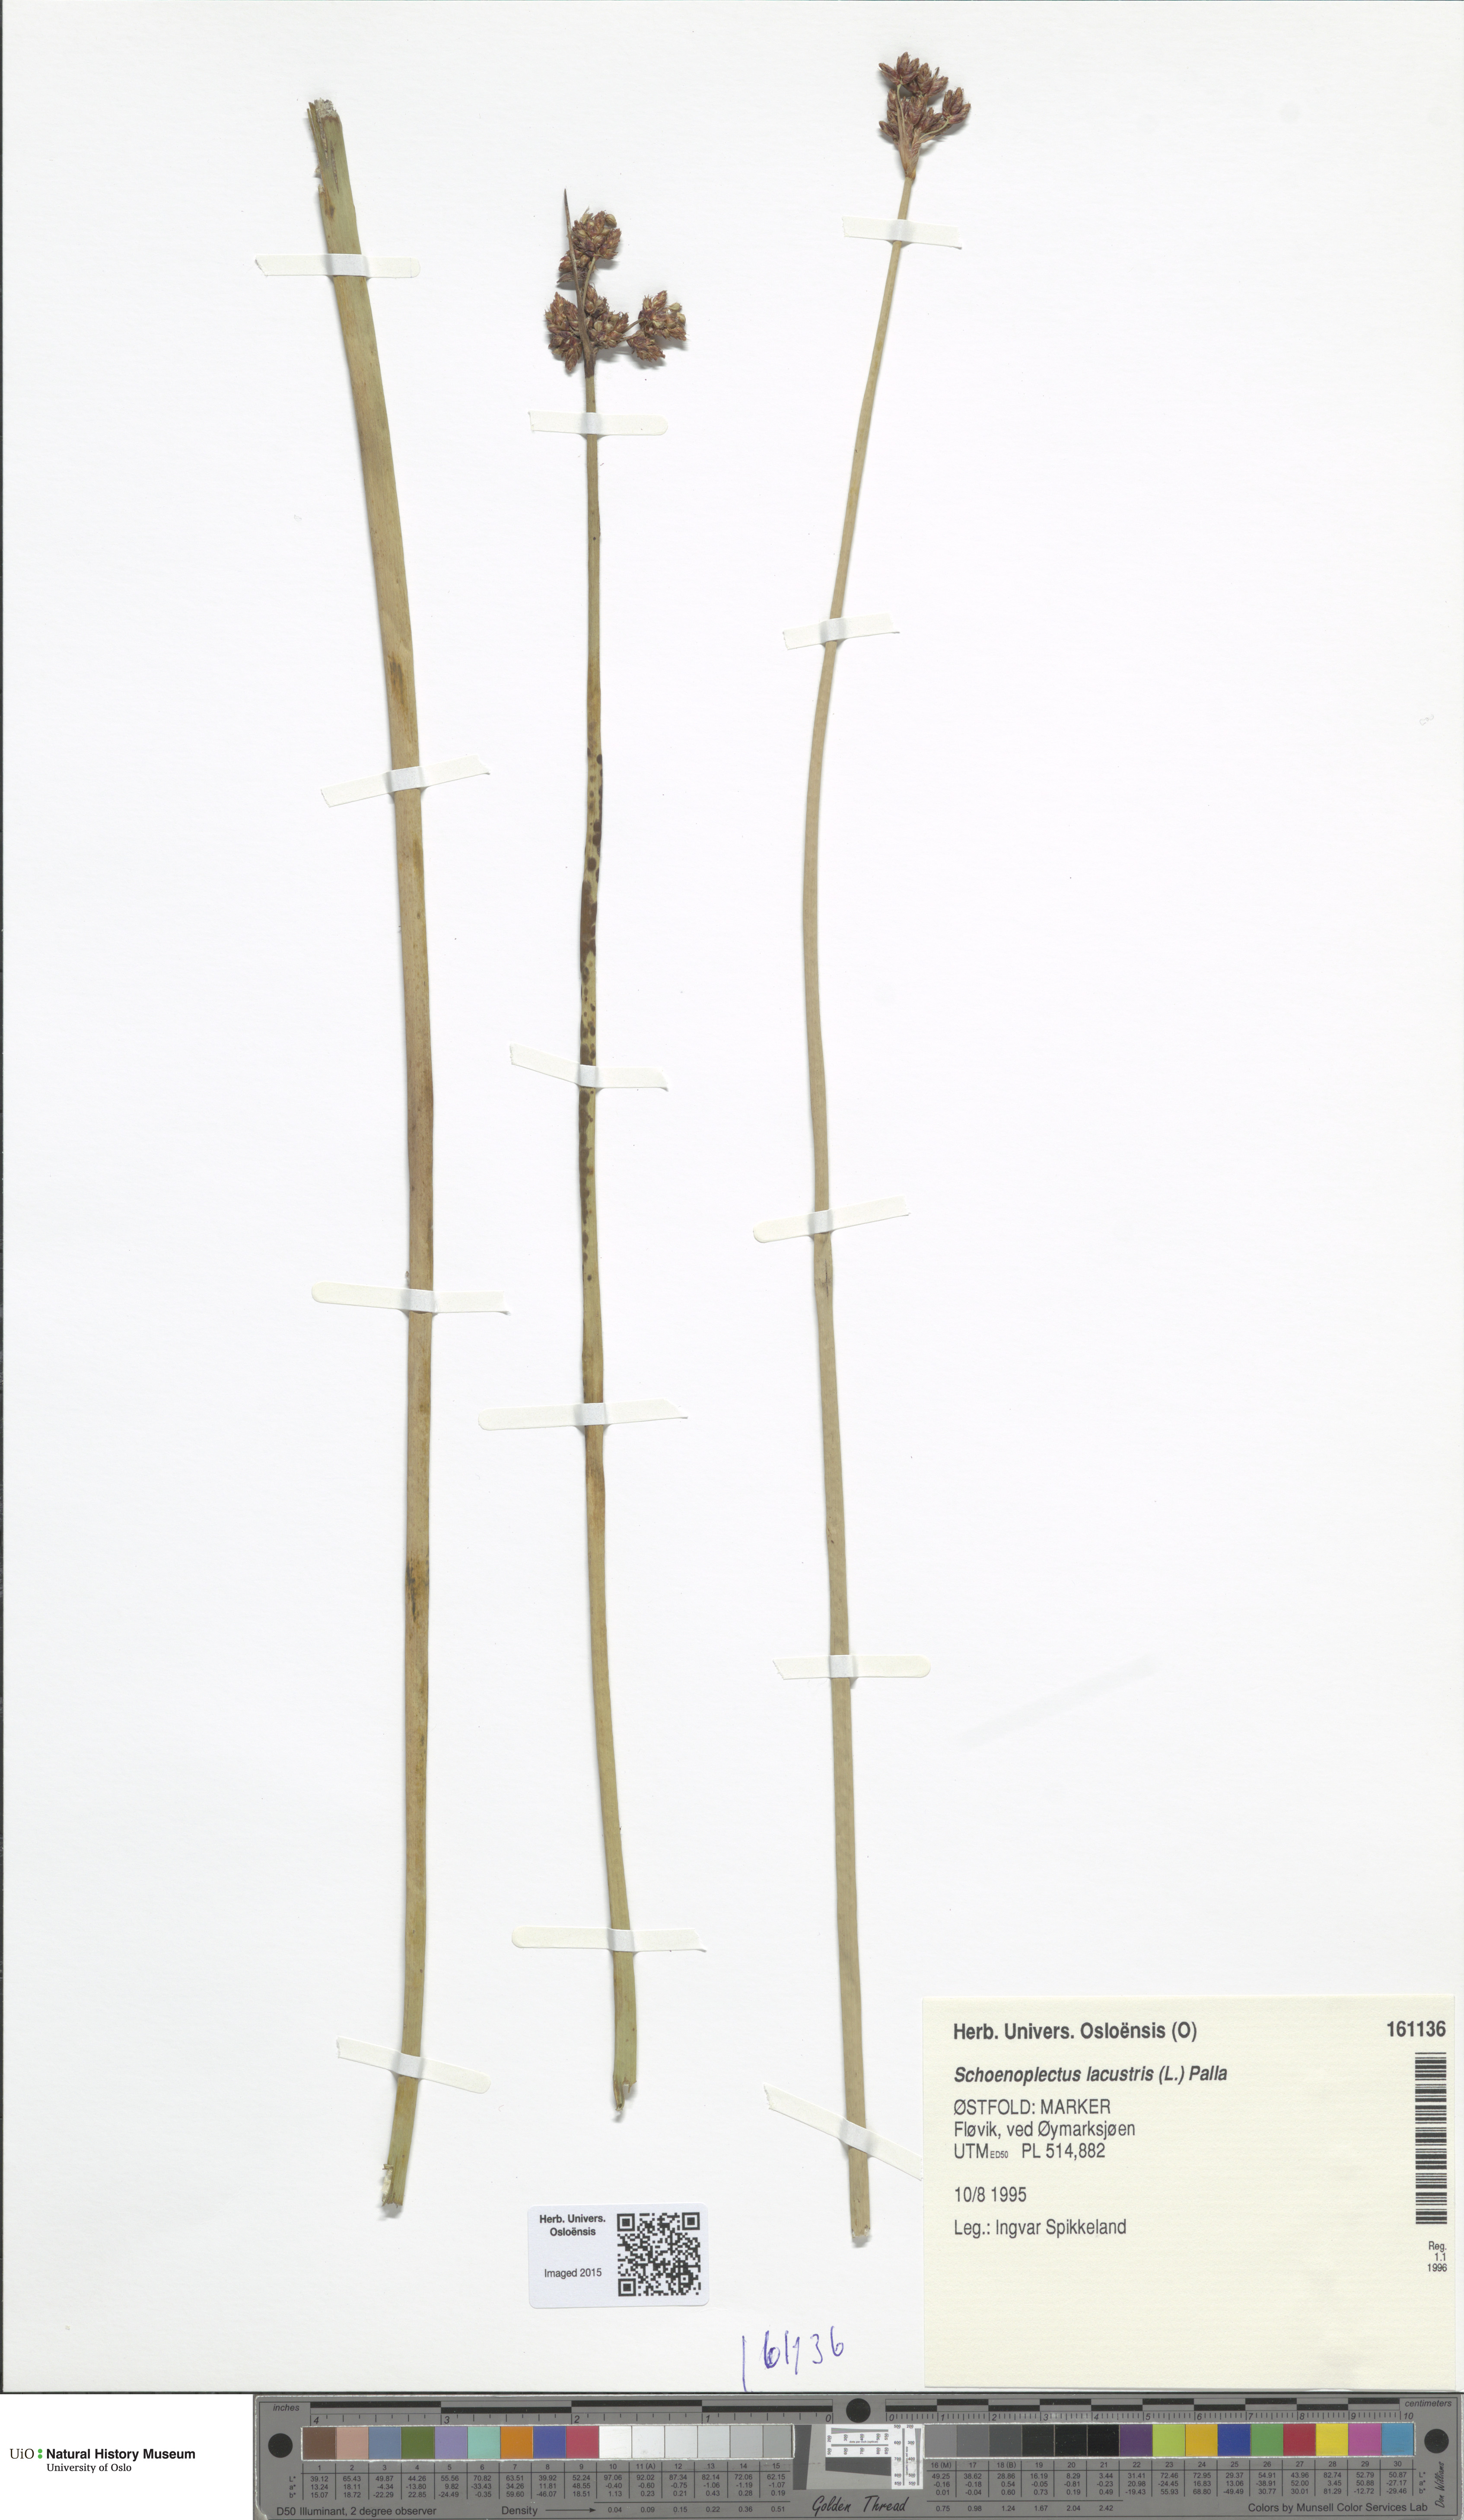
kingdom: Plantae
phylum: Tracheophyta
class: Liliopsida
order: Poales
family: Cyperaceae
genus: Schoenoplectus
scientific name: Schoenoplectus lacustris
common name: Common club-rush
